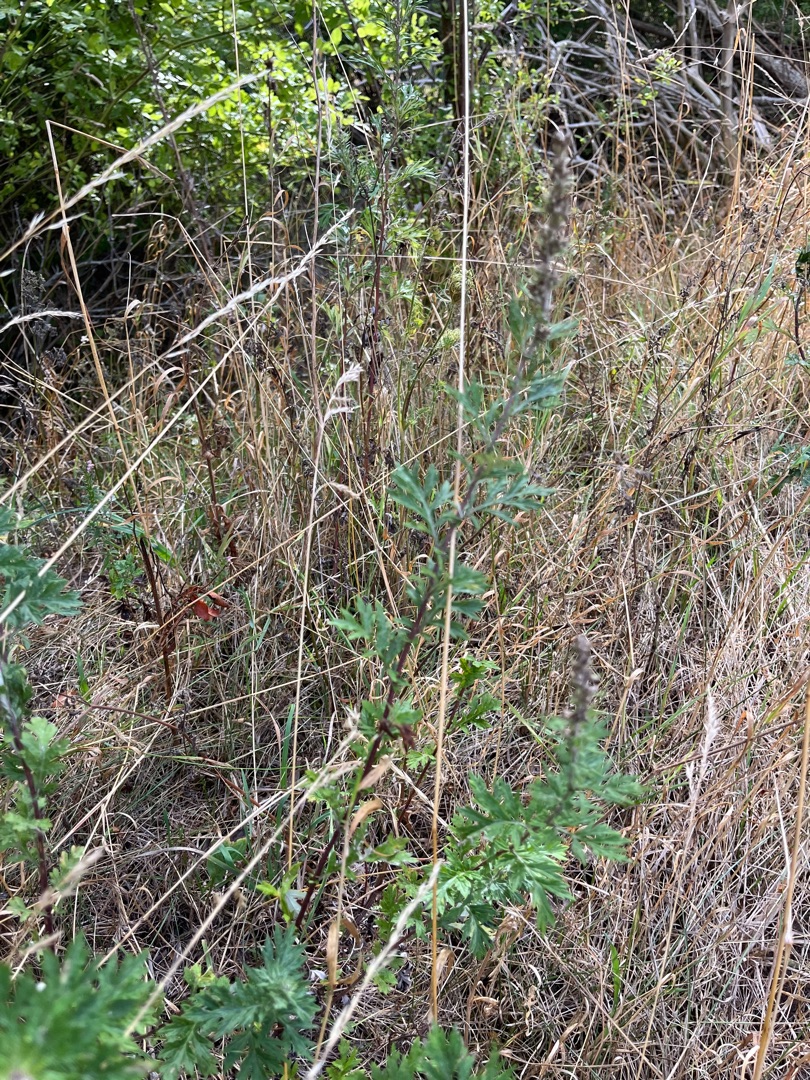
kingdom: Plantae
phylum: Tracheophyta
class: Magnoliopsida
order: Asterales
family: Asteraceae
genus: Artemisia
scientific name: Artemisia vulgaris
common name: Grå-bynke
